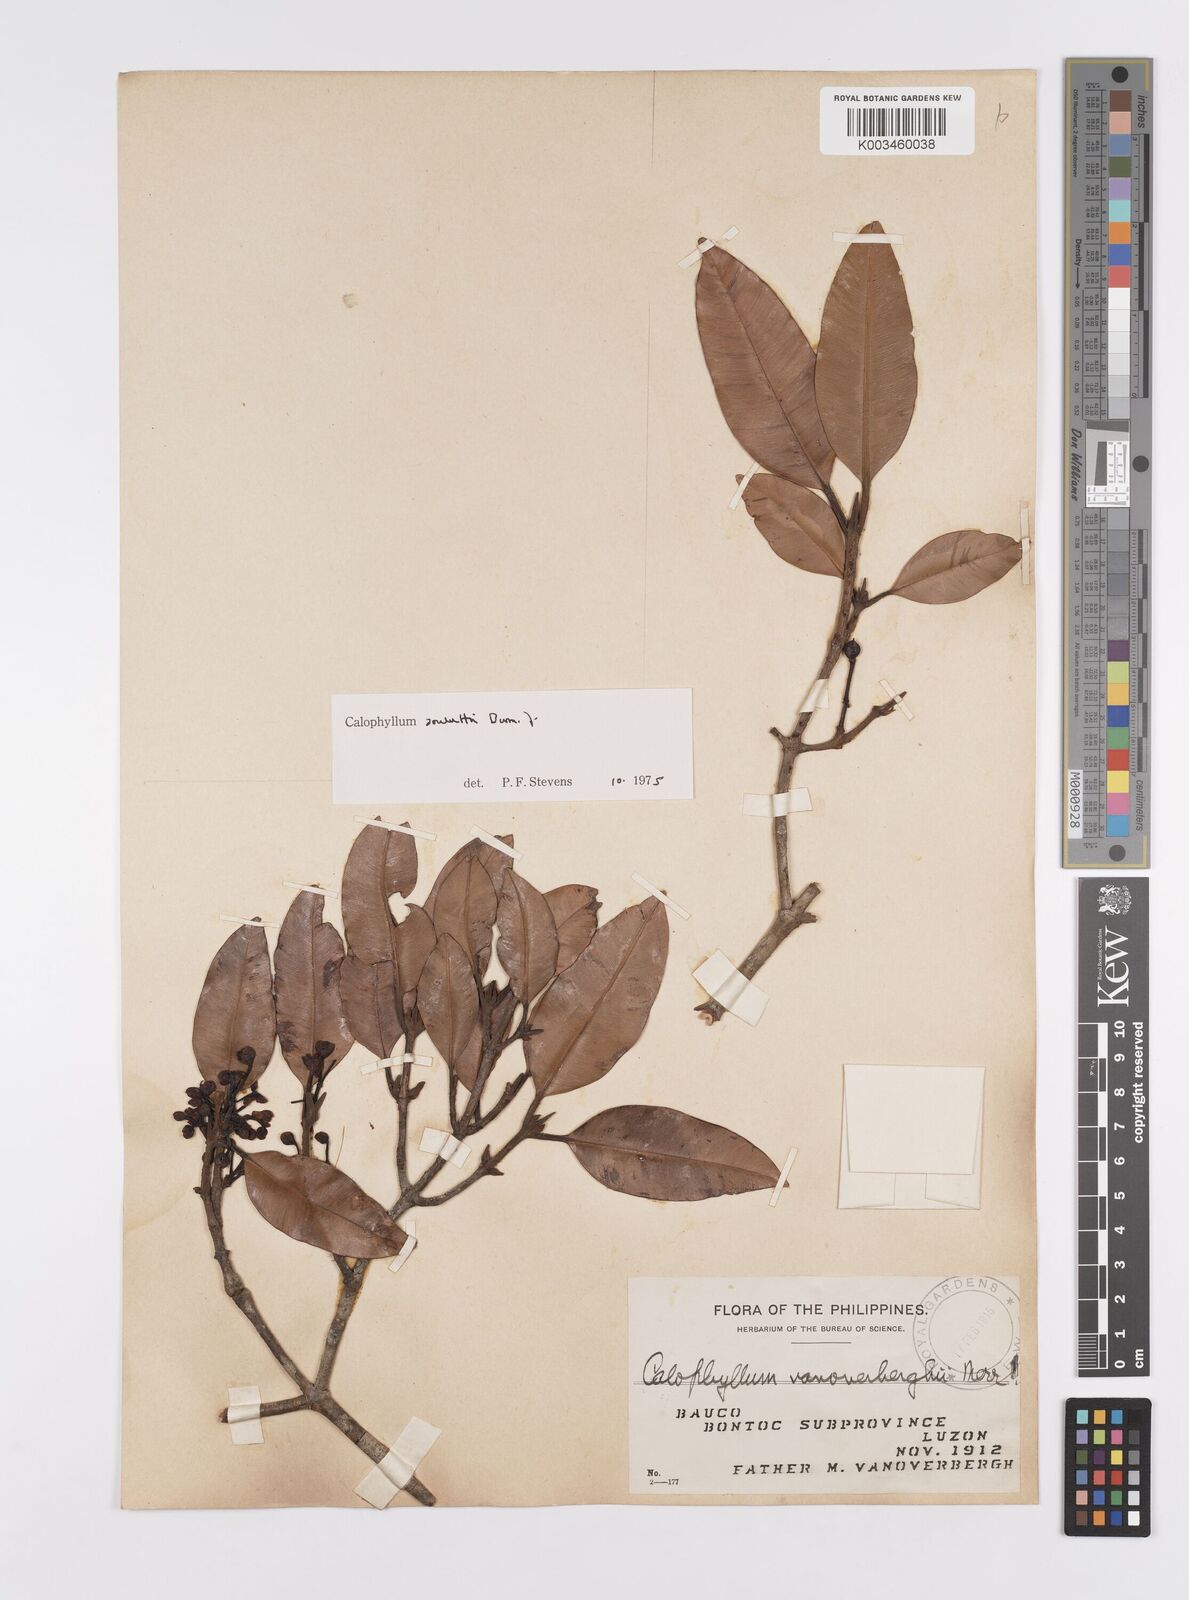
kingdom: Plantae
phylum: Tracheophyta
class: Magnoliopsida
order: Malpighiales
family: Calophyllaceae
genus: Calophyllum
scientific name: Calophyllum soulattri
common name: Bitangoor boonot
